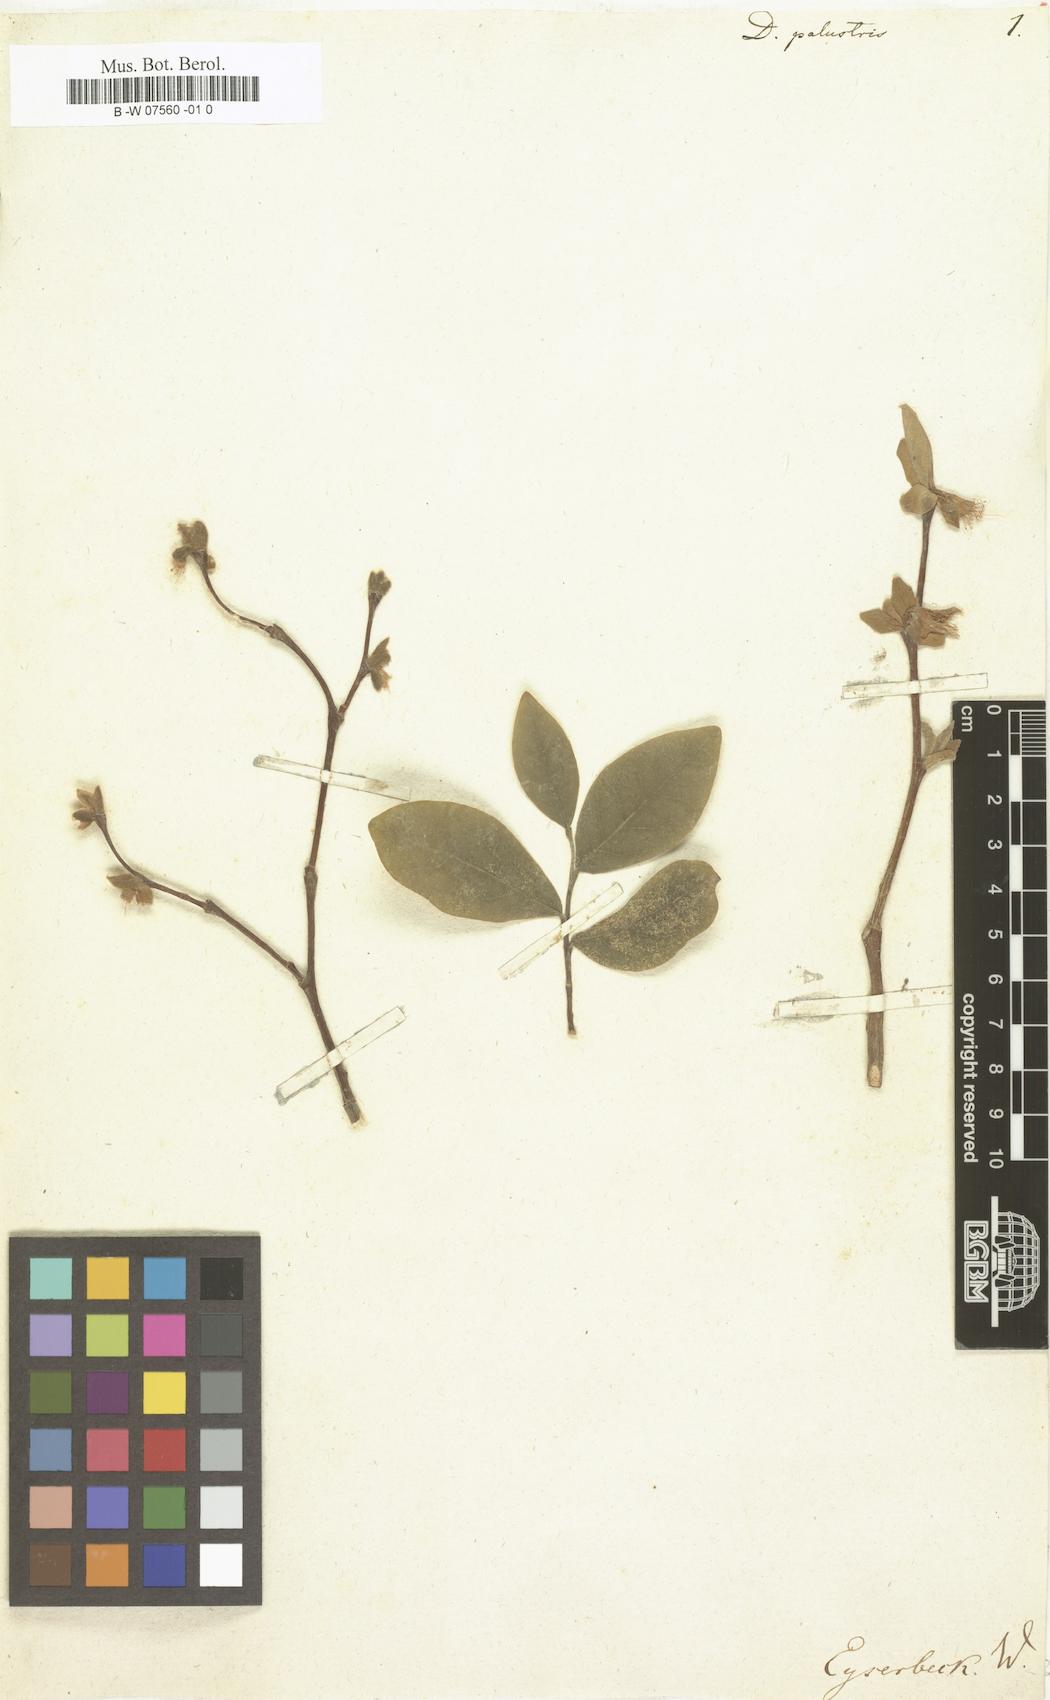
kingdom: Plantae
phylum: Tracheophyta
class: Magnoliopsida
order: Malvales
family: Thymelaeaceae
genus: Dirca
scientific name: Dirca palustris
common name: Leatherwood
